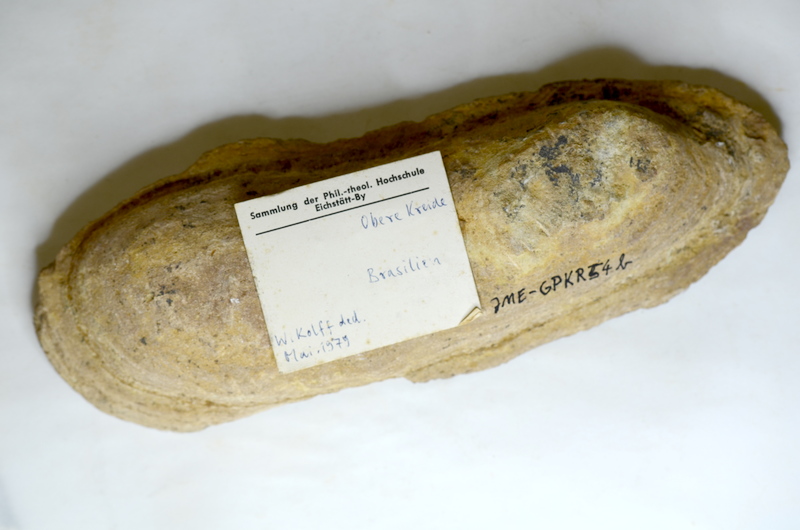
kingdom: Animalia
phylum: Chordata
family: Dorypteridae
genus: Rhacolepis
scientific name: Rhacolepis buccalis
